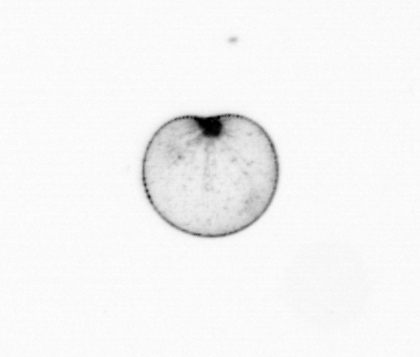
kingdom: Chromista
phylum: Myzozoa
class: Dinophyceae
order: Noctilucales
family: Noctilucaceae
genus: Noctiluca
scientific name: Noctiluca scintillans
